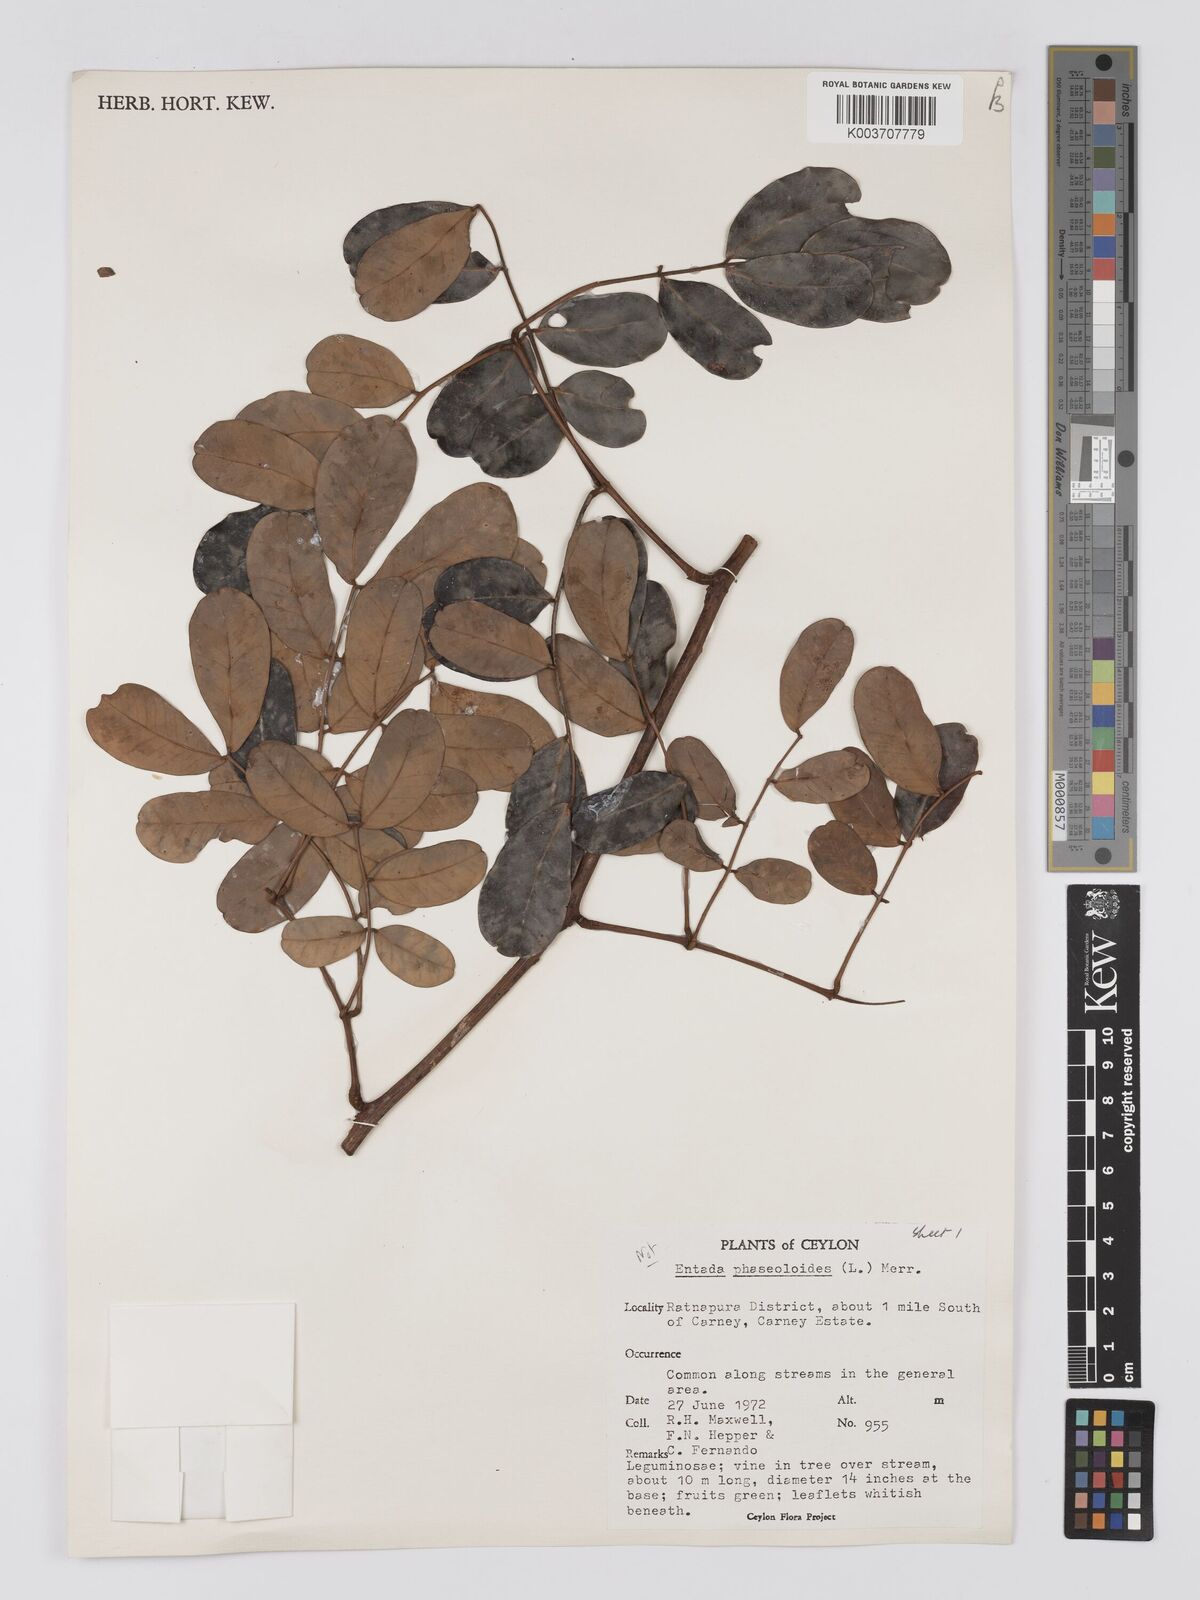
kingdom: Plantae
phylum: Tracheophyta
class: Magnoliopsida
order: Fabales
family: Fabaceae
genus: Entada
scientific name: Entada phaseoloides
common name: Matchbox-bean
